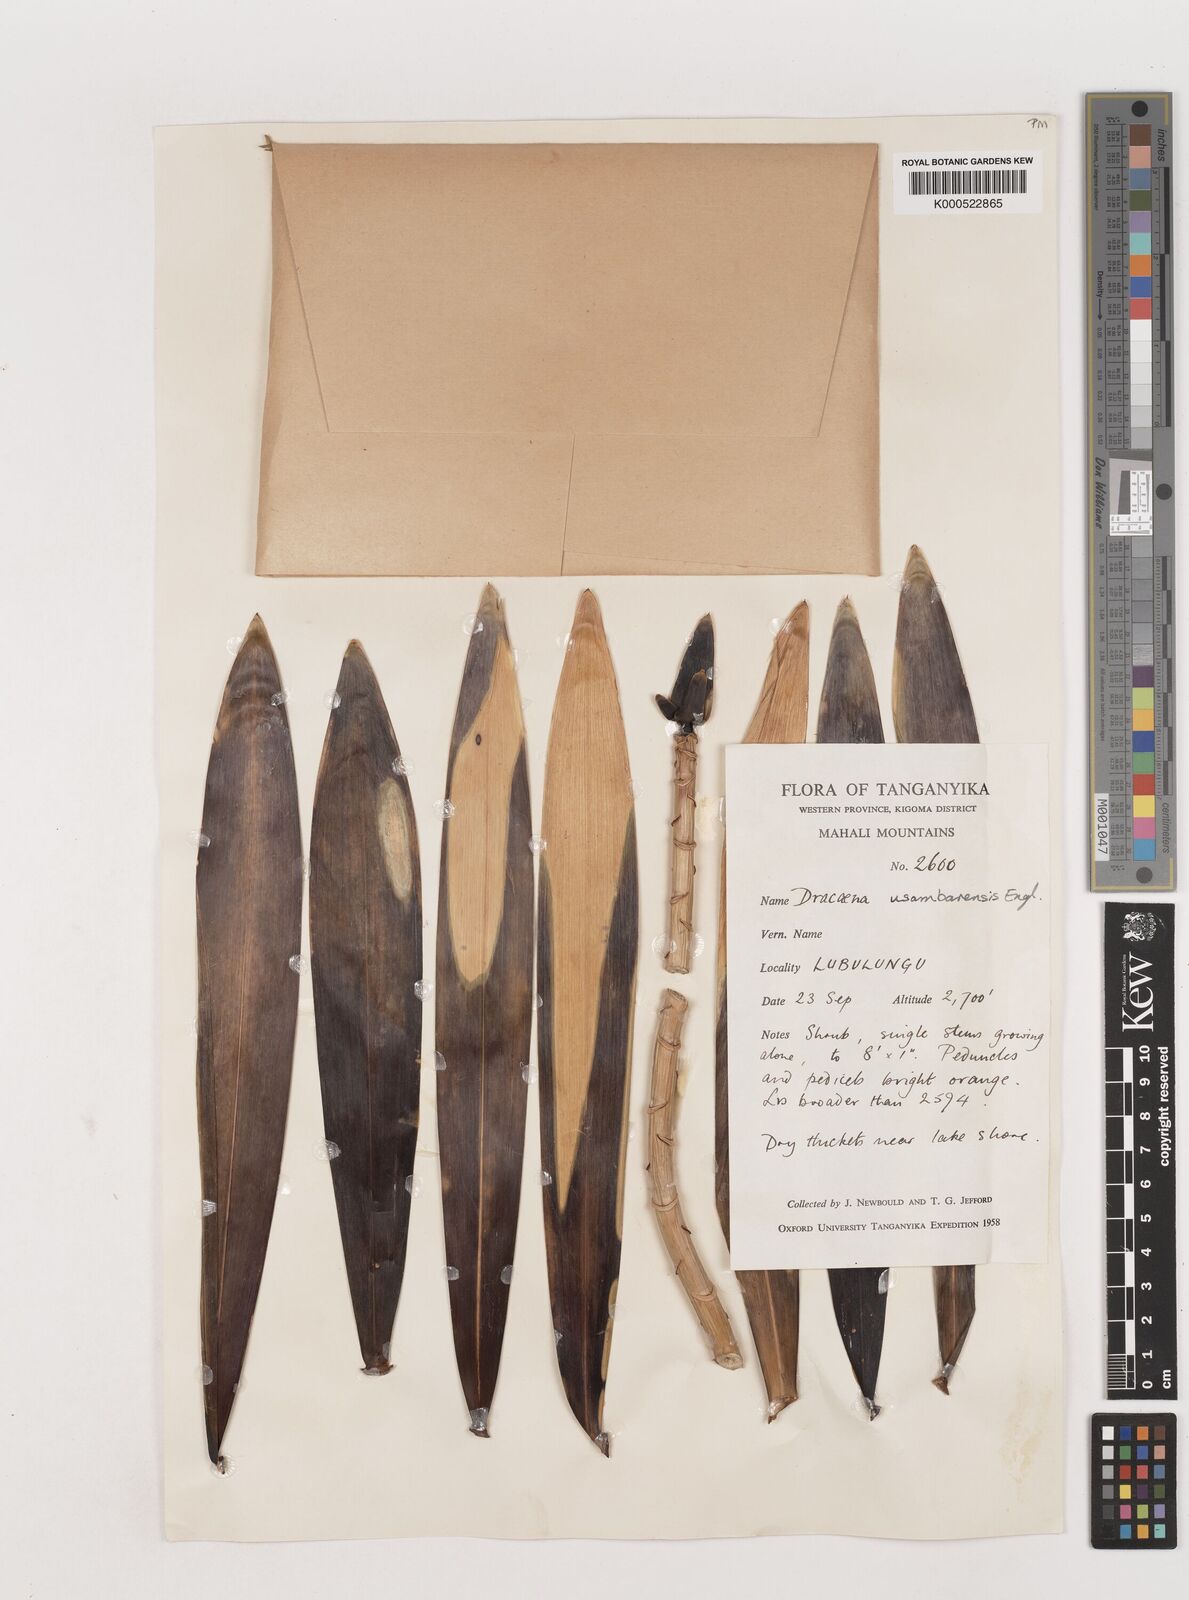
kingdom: Plantae
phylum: Tracheophyta
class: Liliopsida
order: Asparagales
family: Asparagaceae
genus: Dracaena
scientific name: Dracaena usambarensis
